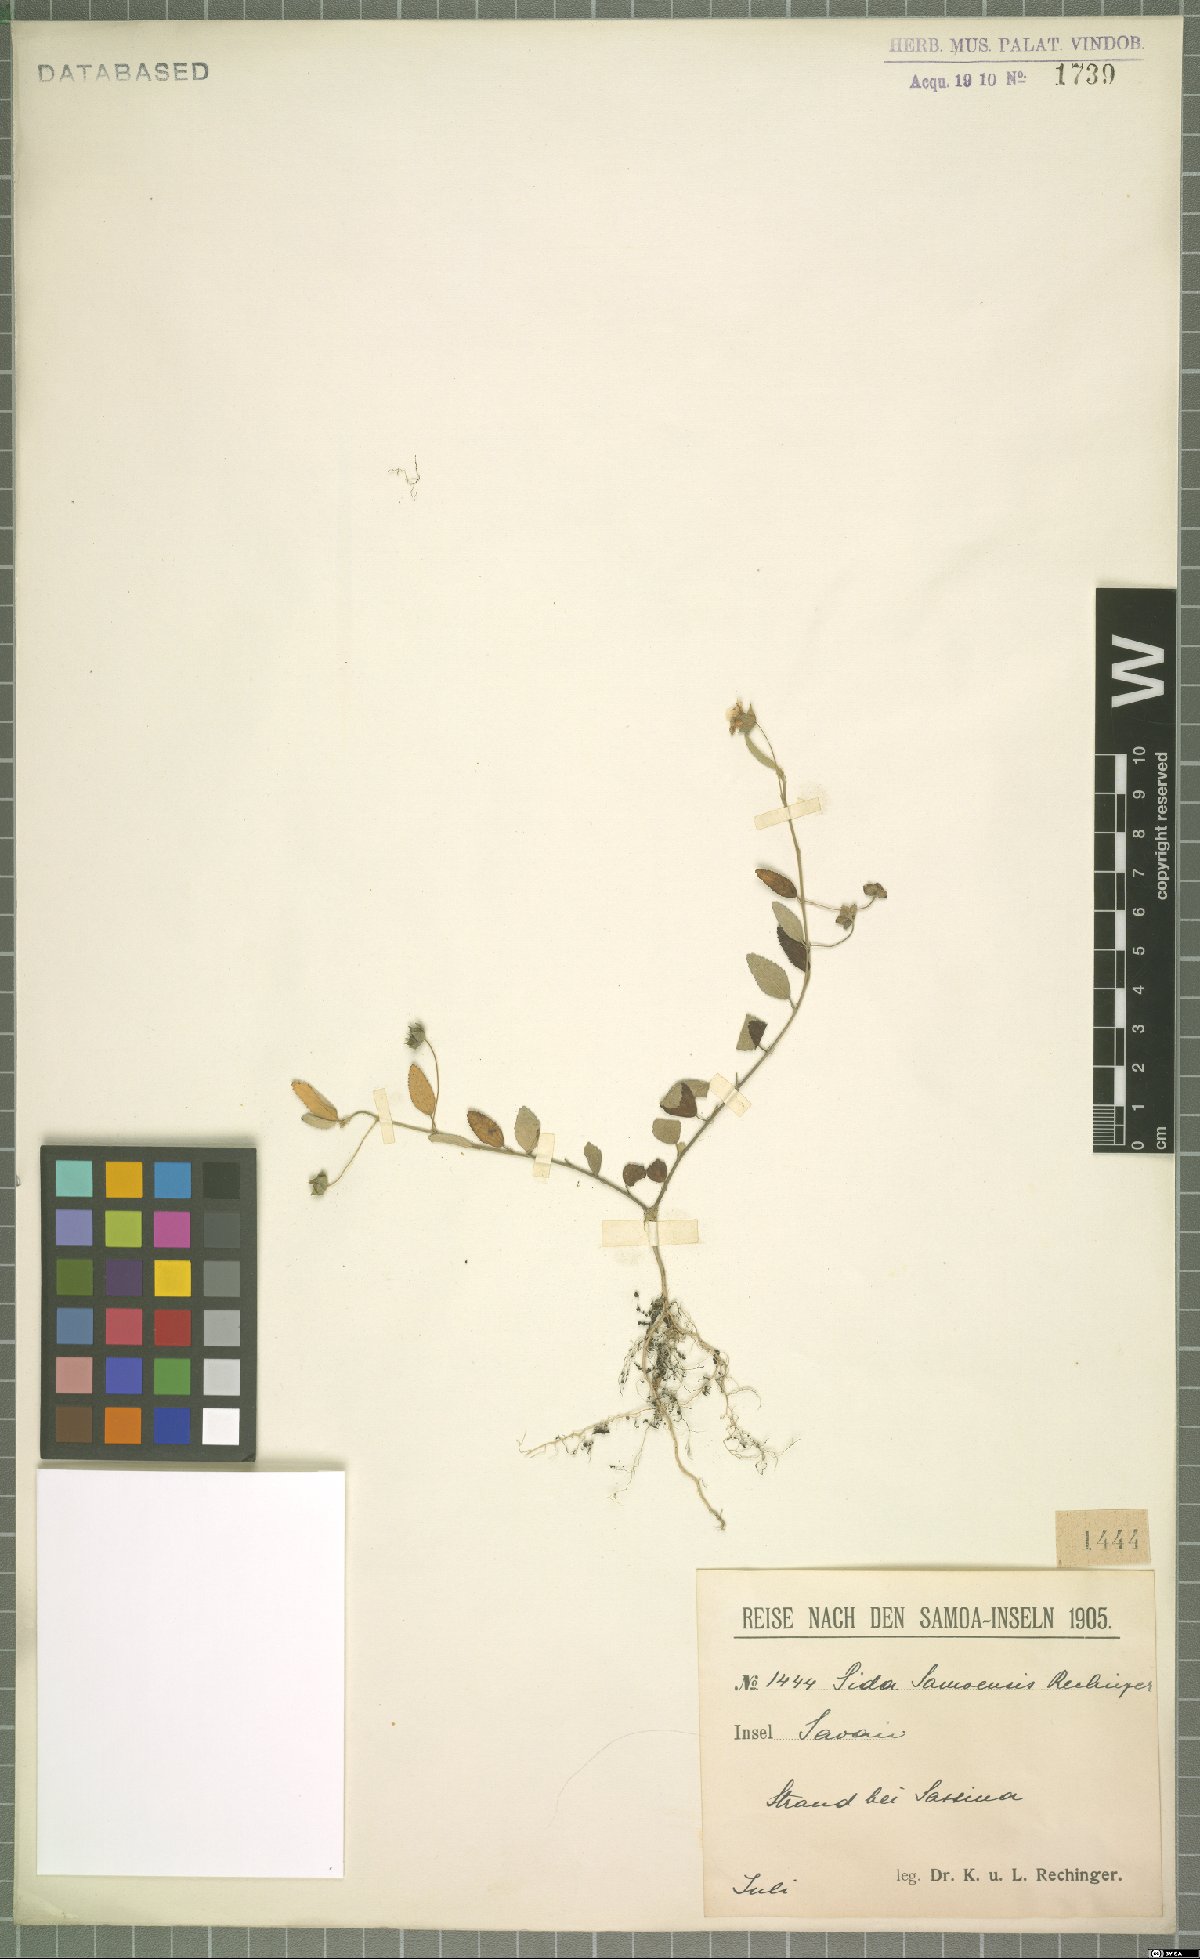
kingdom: Plantae
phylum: Tracheophyta
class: Magnoliopsida
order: Malvales
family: Malvaceae
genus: Sida
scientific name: Sida pusilla
